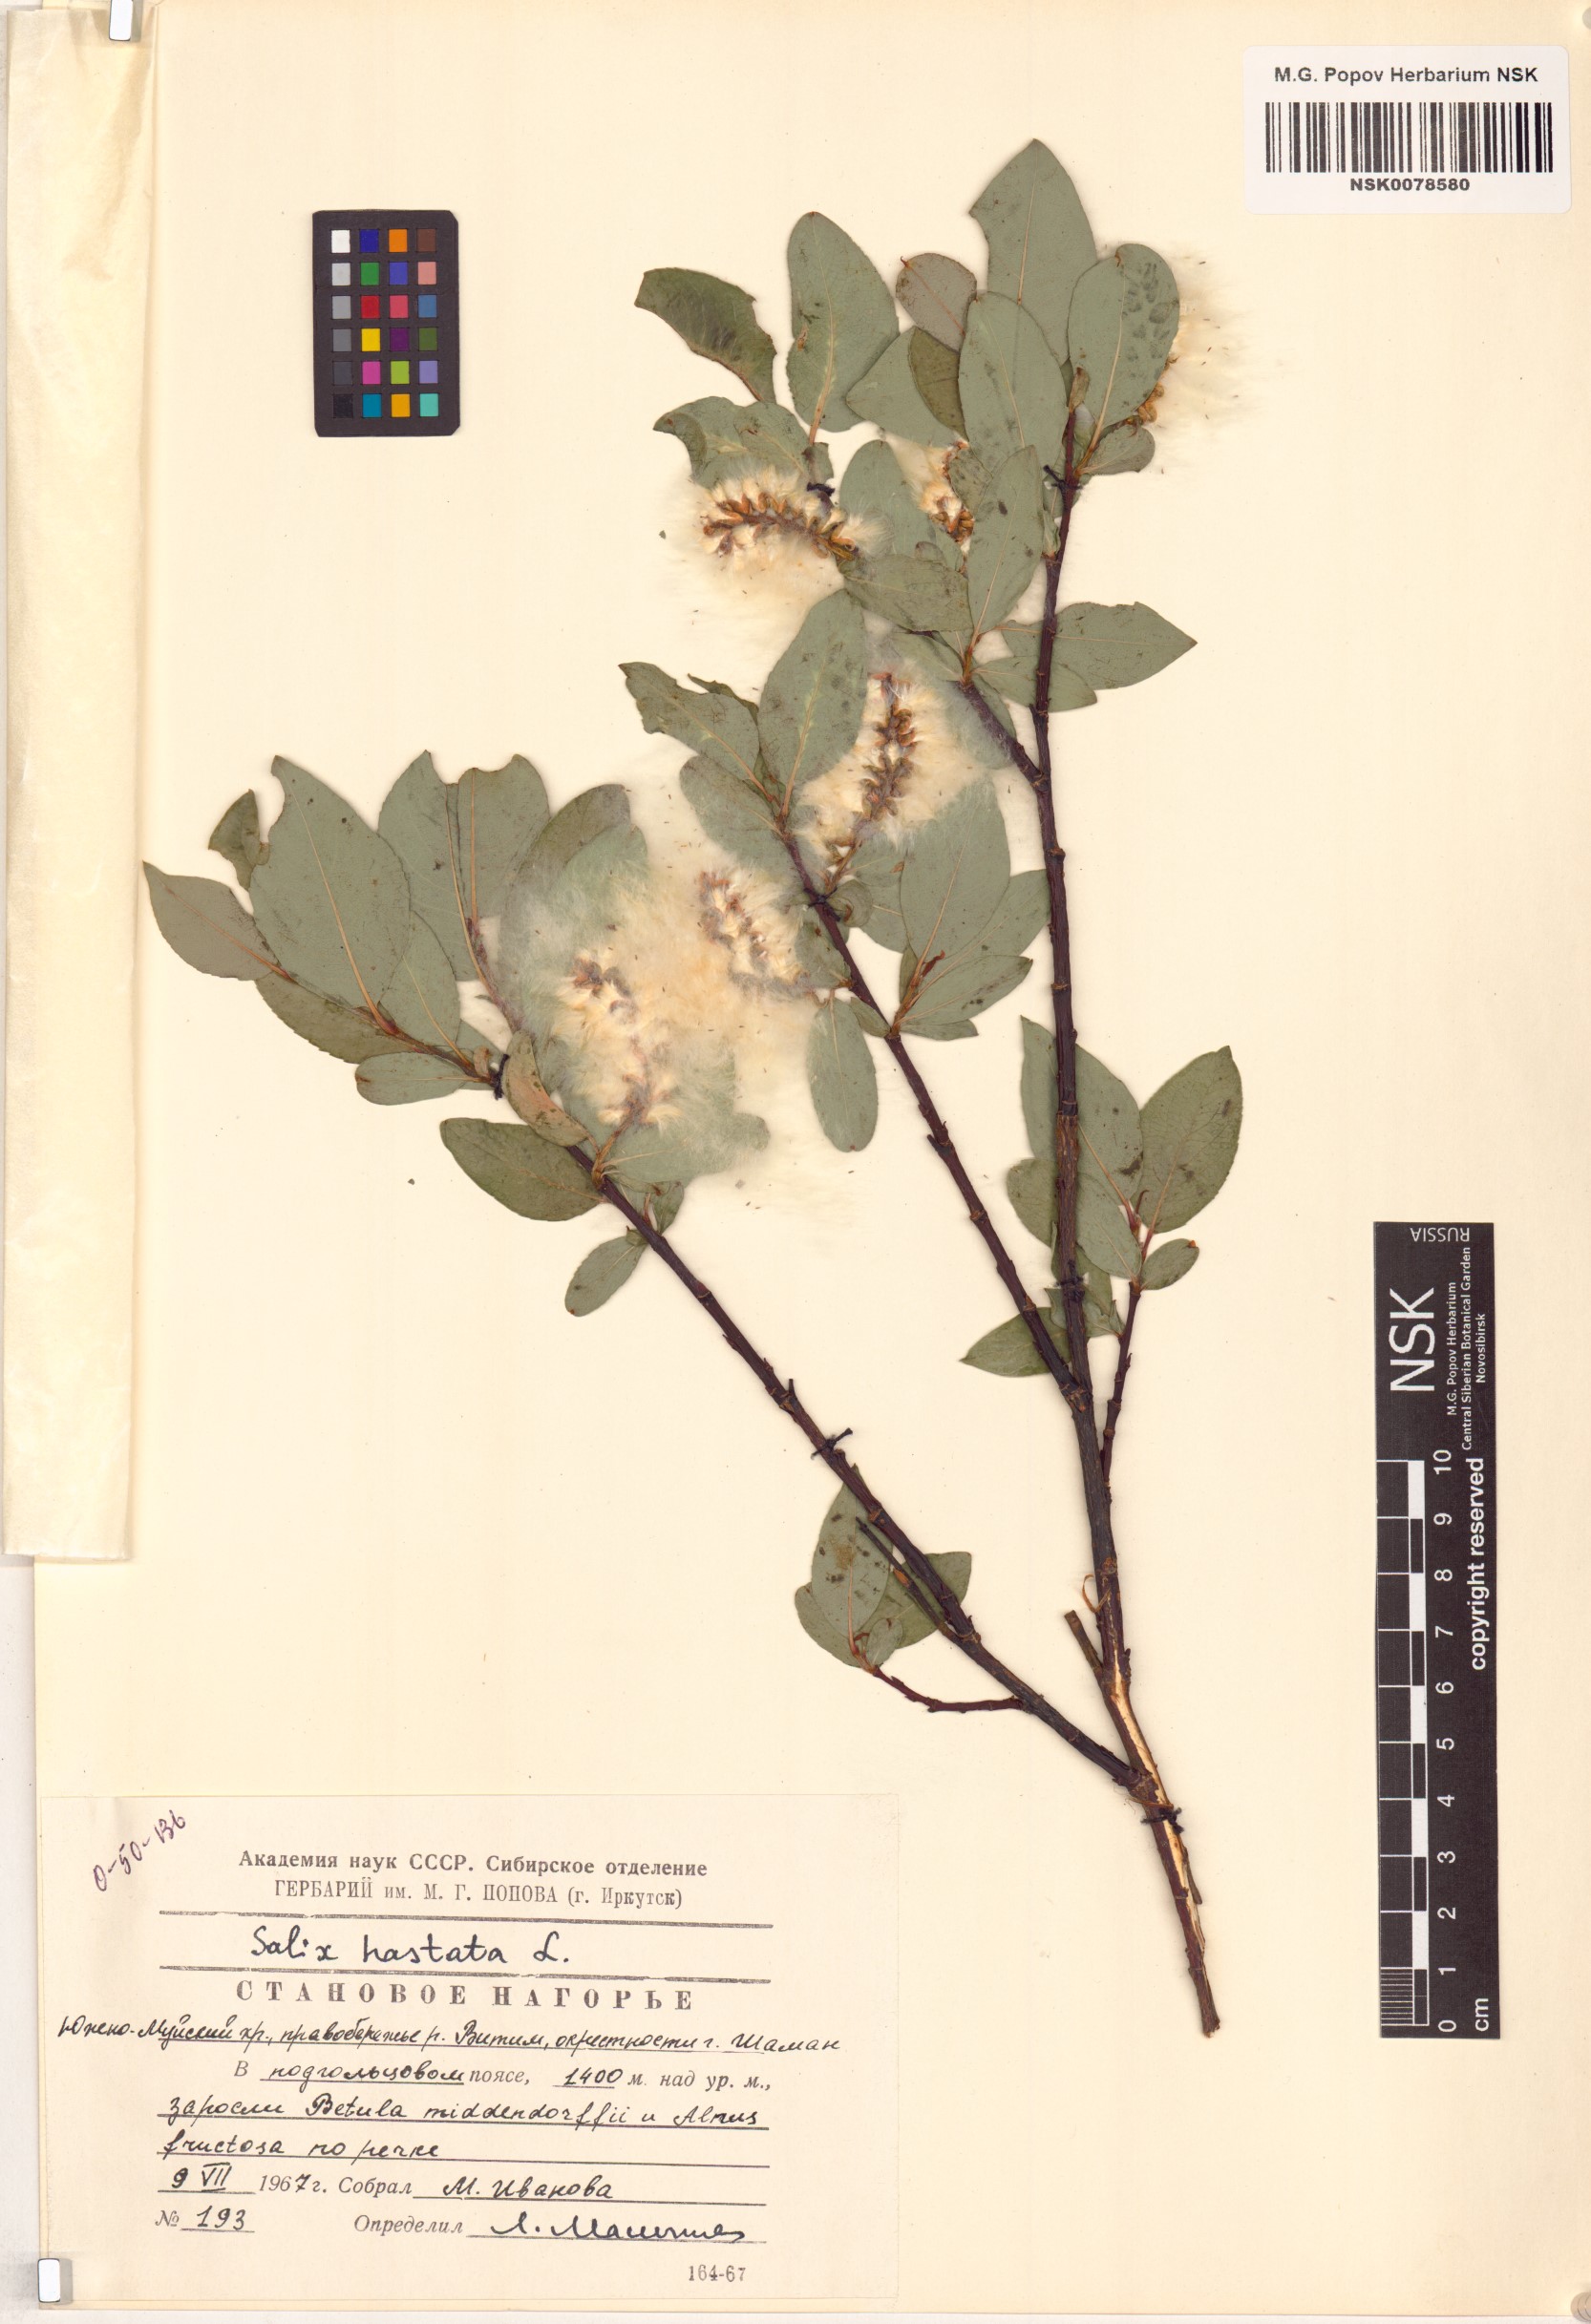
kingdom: Plantae
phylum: Tracheophyta
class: Magnoliopsida
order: Malpighiales
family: Salicaceae
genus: Salix
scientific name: Salix hastata
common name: Halberd willow
